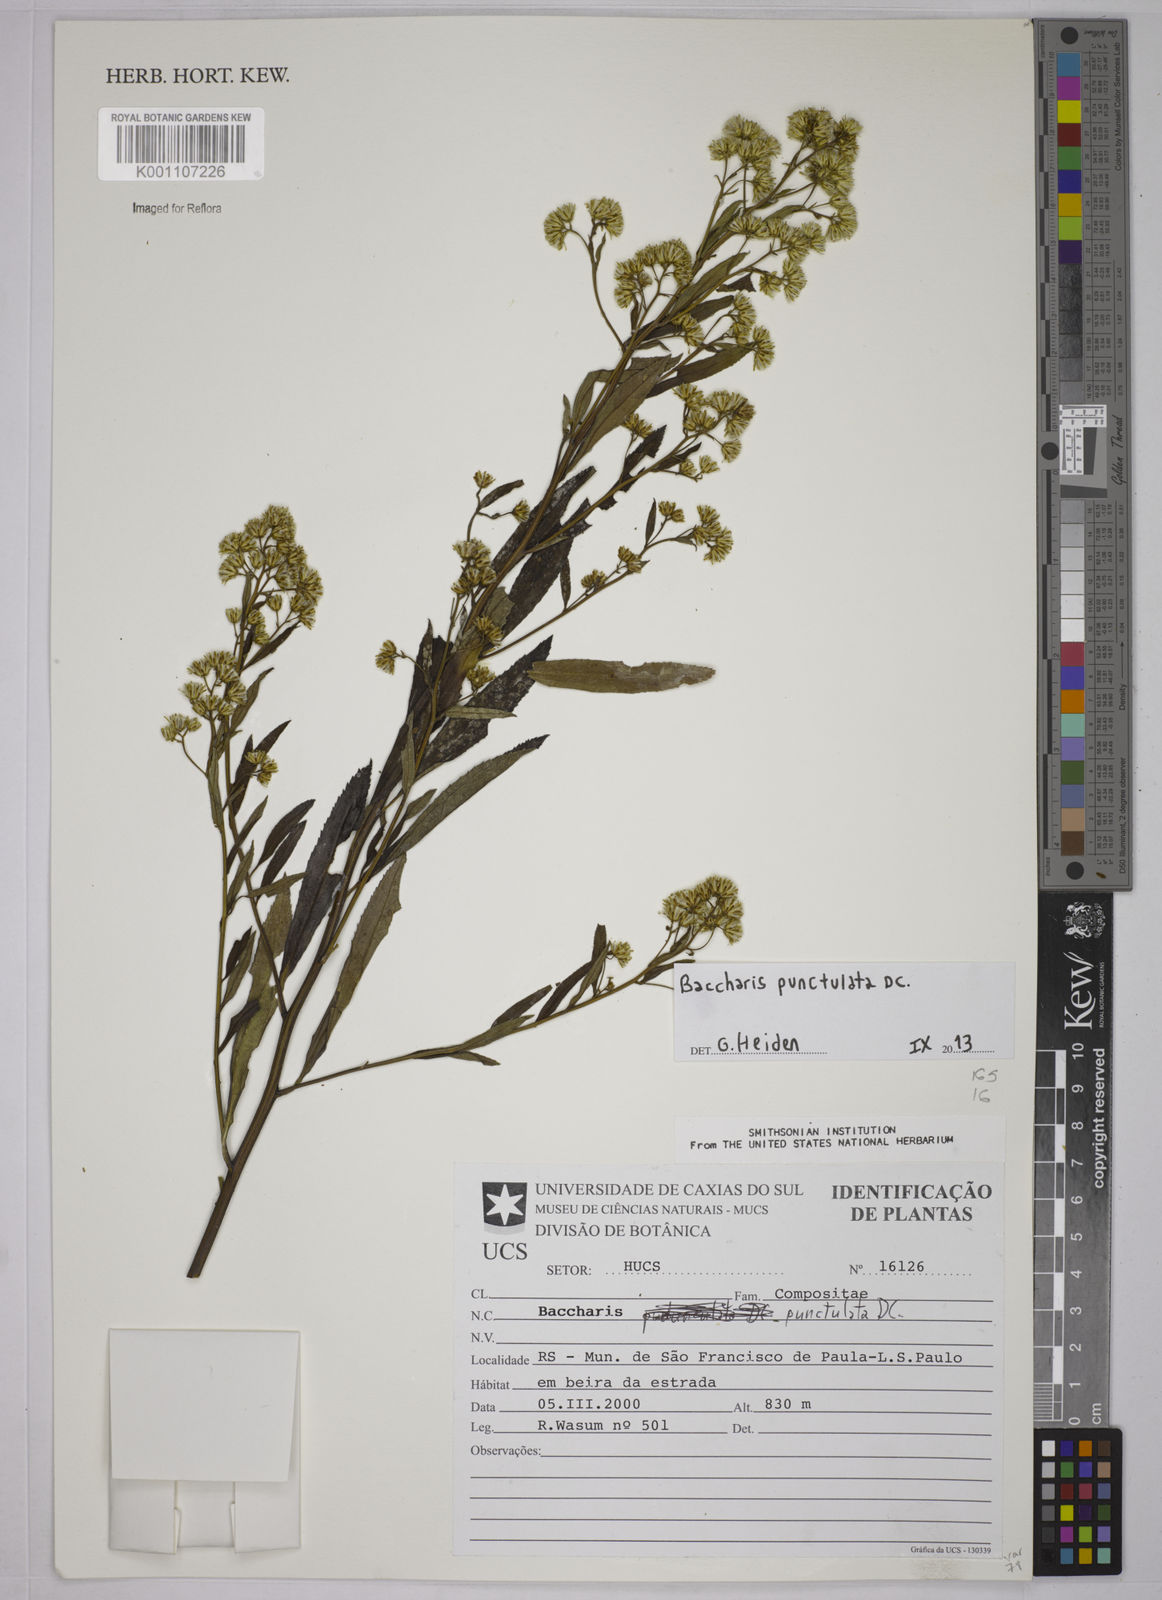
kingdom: Plantae
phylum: Tracheophyta
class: Magnoliopsida
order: Asterales
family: Asteraceae
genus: Baccharis
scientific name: Baccharis punctulata
